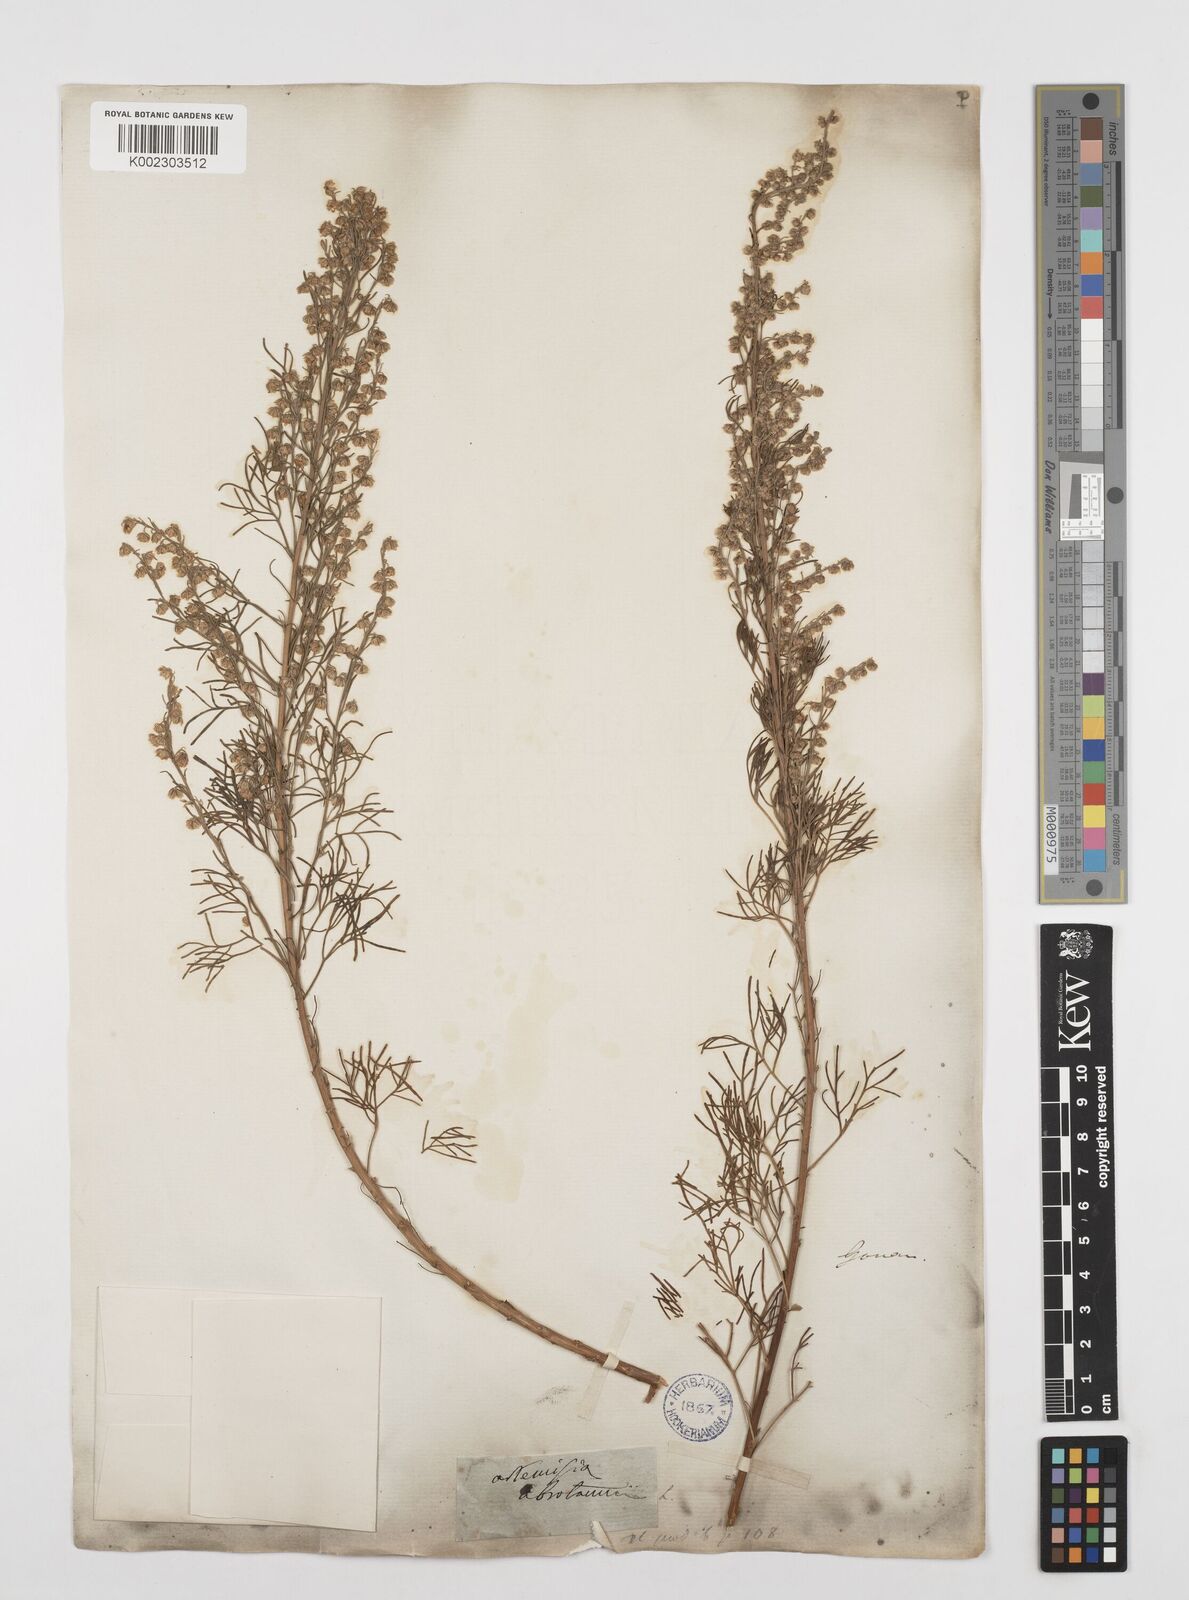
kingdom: Plantae
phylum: Tracheophyta
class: Magnoliopsida
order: Asterales
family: Asteraceae
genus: Artemisia
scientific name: Artemisia abrotanum
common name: Southernwood
